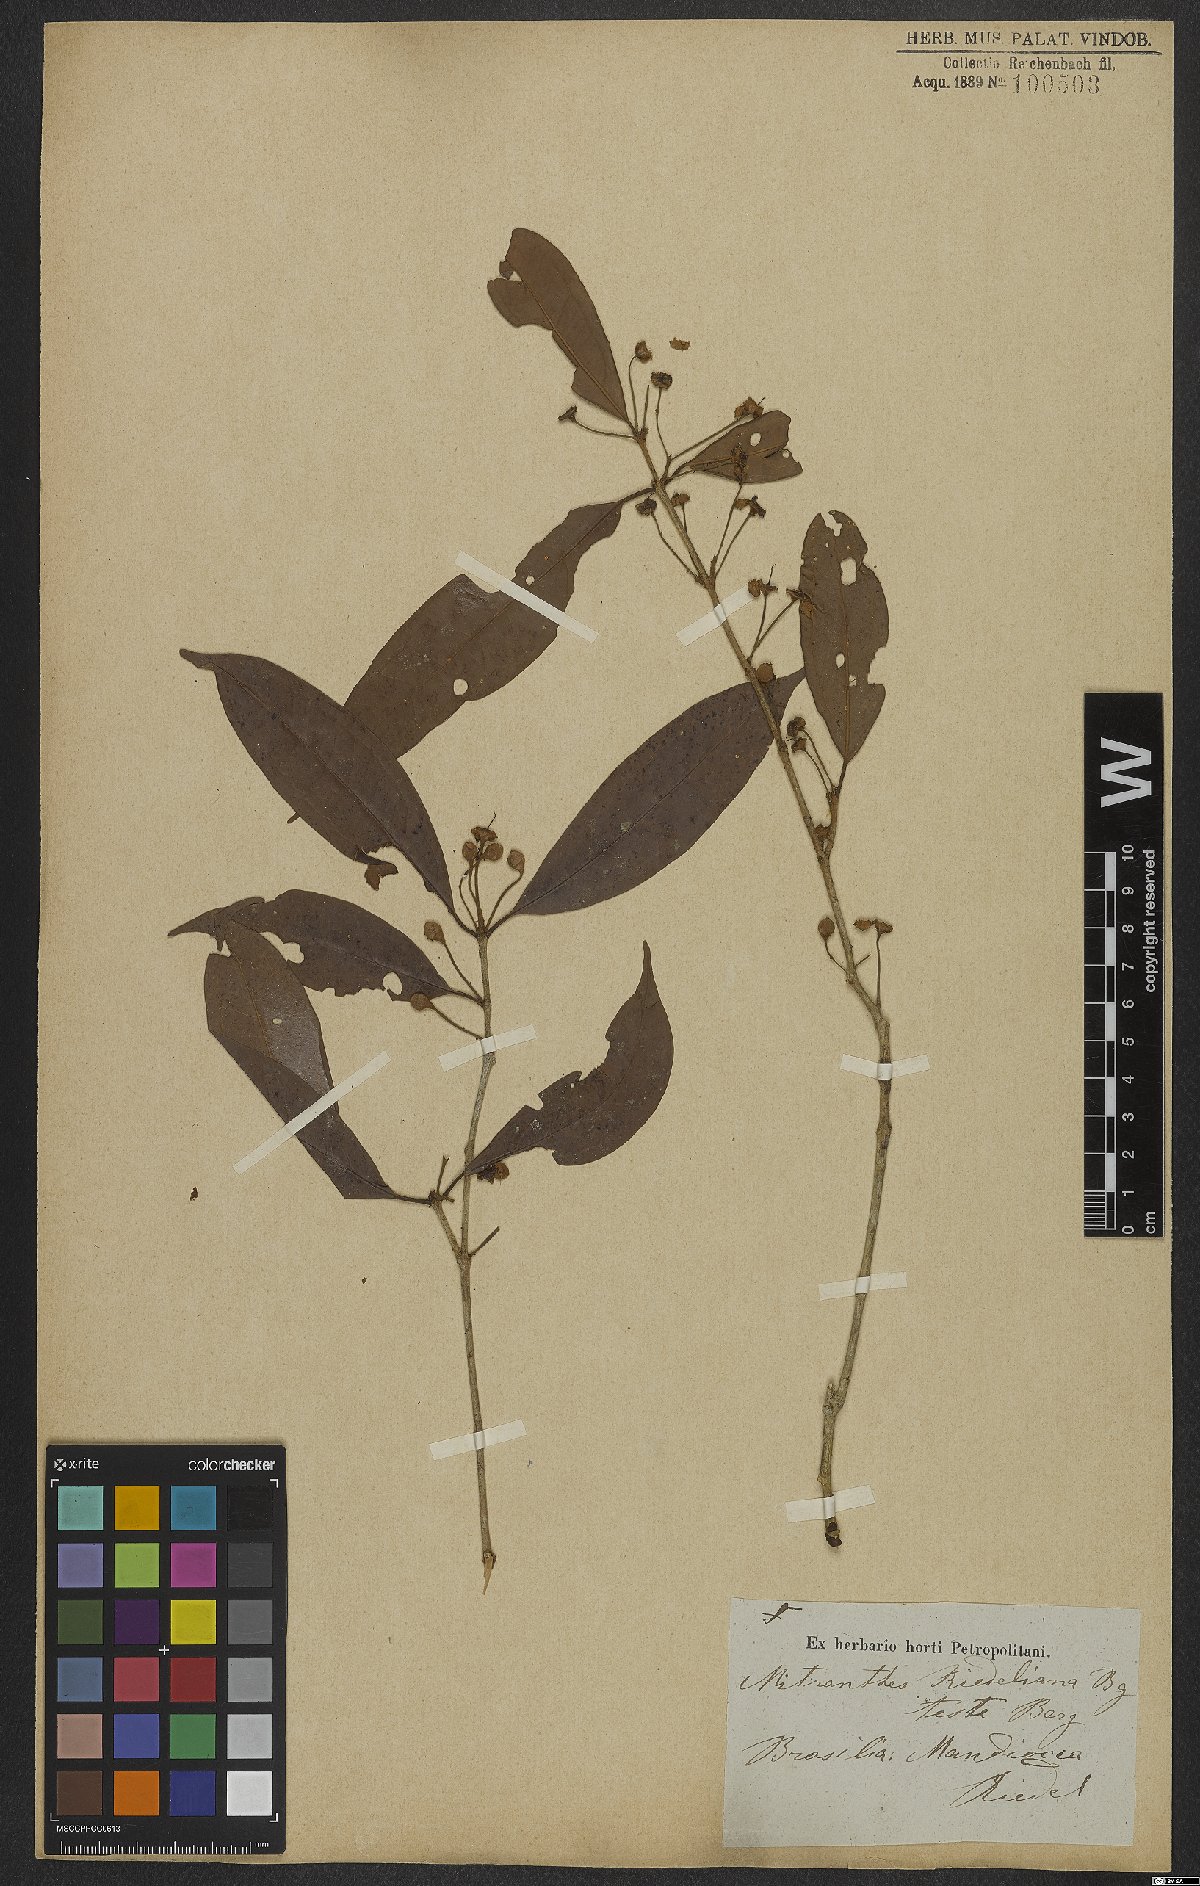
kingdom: Plantae
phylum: Tracheophyta
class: Magnoliopsida
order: Myrtales
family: Myrtaceae
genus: Eugenia
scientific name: Eugenia neoriedeliana
